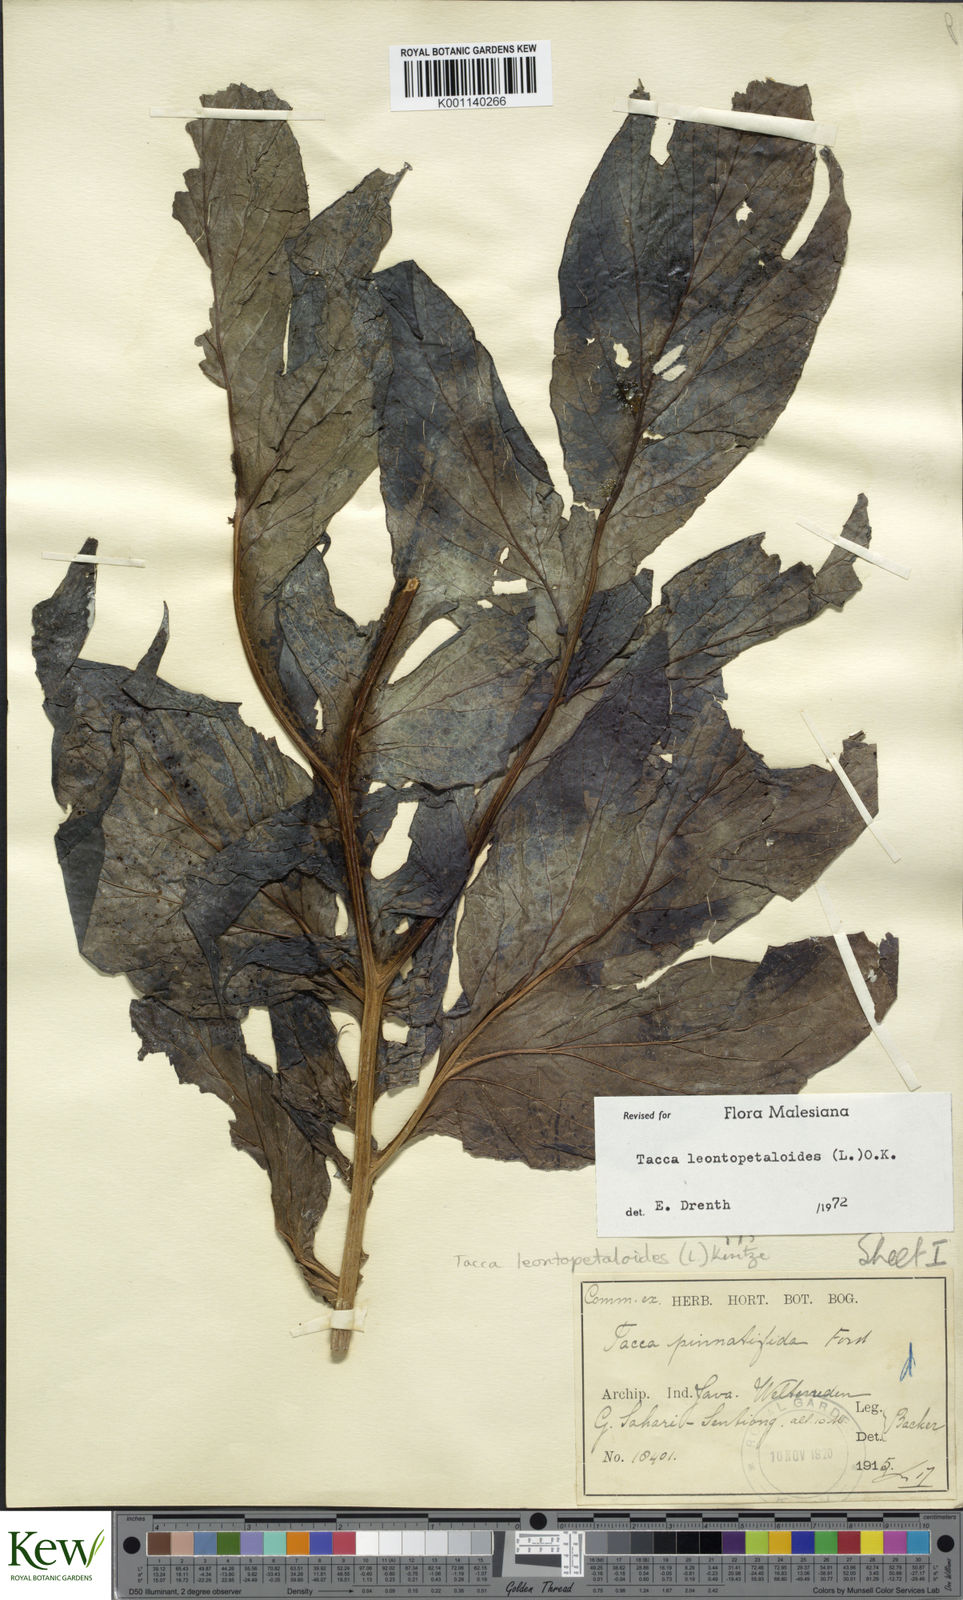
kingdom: Plantae
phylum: Tracheophyta
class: Liliopsida
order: Dioscoreales
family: Dioscoreaceae
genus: Tacca
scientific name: Tacca leontopetaloides
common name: Arrowroot
